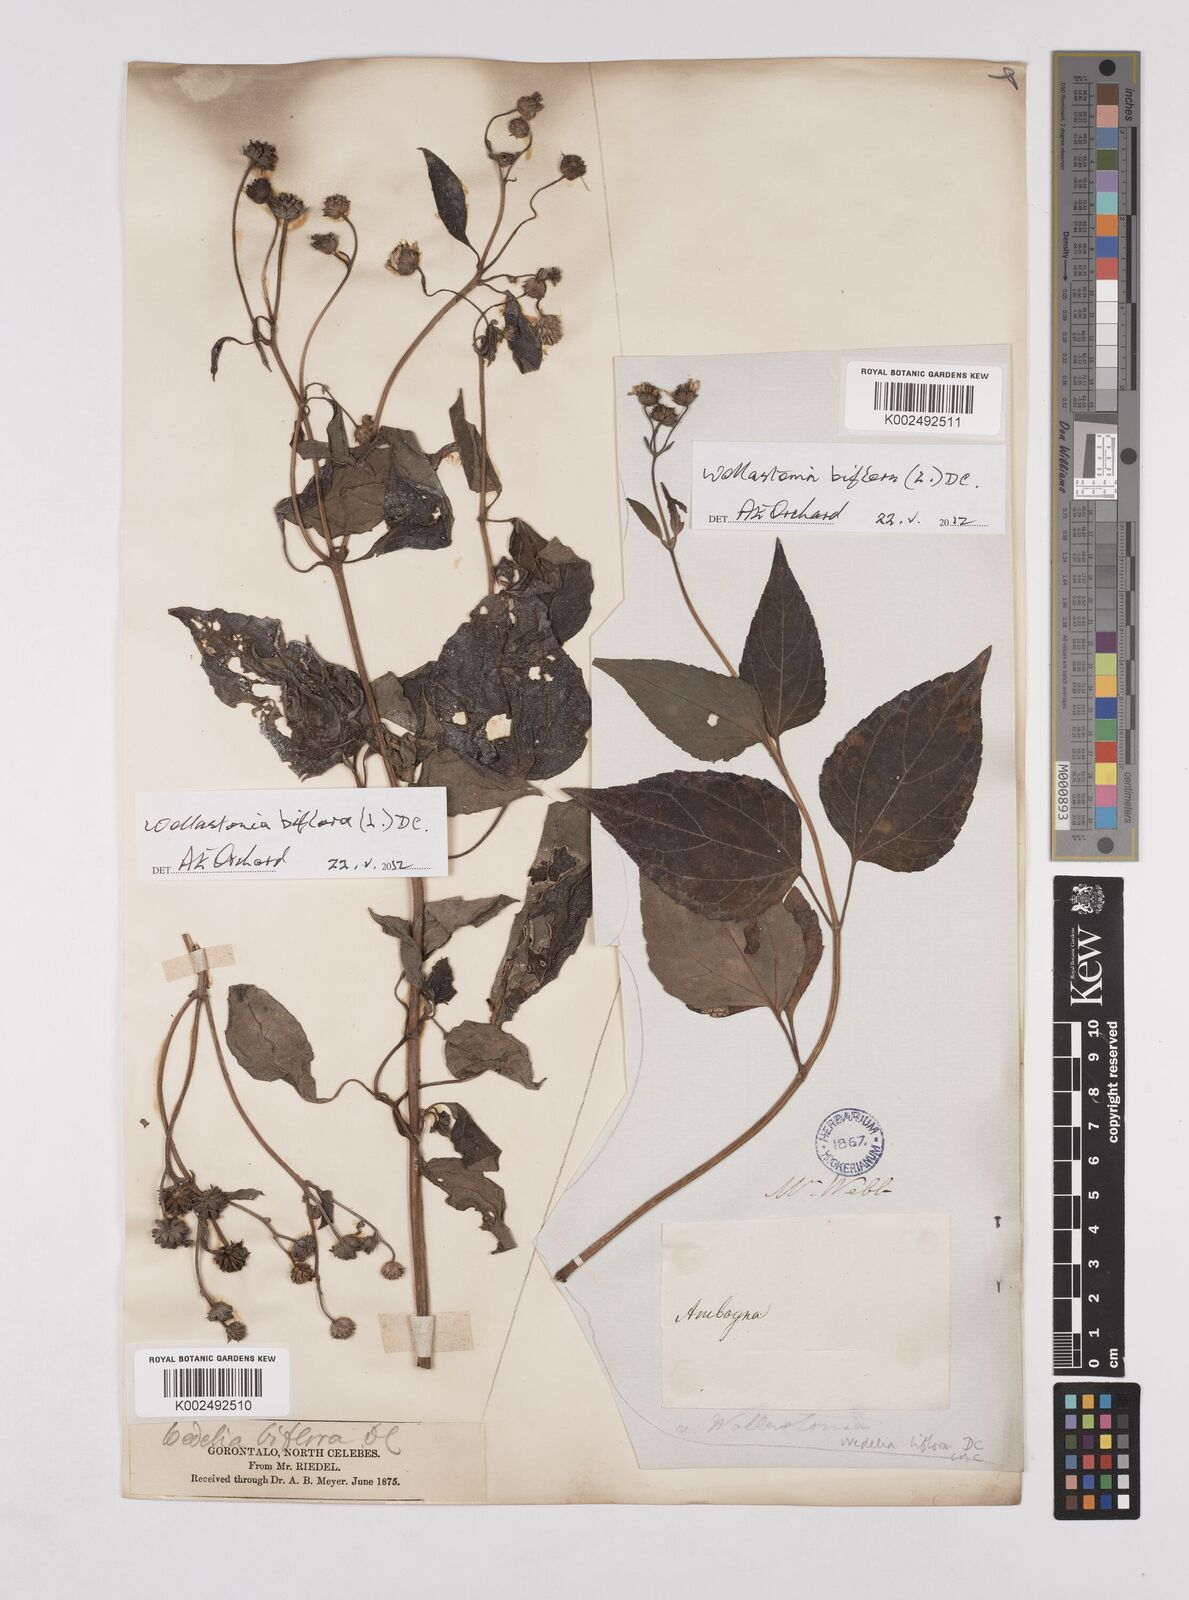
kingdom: Plantae
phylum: Tracheophyta
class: Magnoliopsida
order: Asterales
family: Asteraceae
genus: Wollastonia
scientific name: Wollastonia biflora
